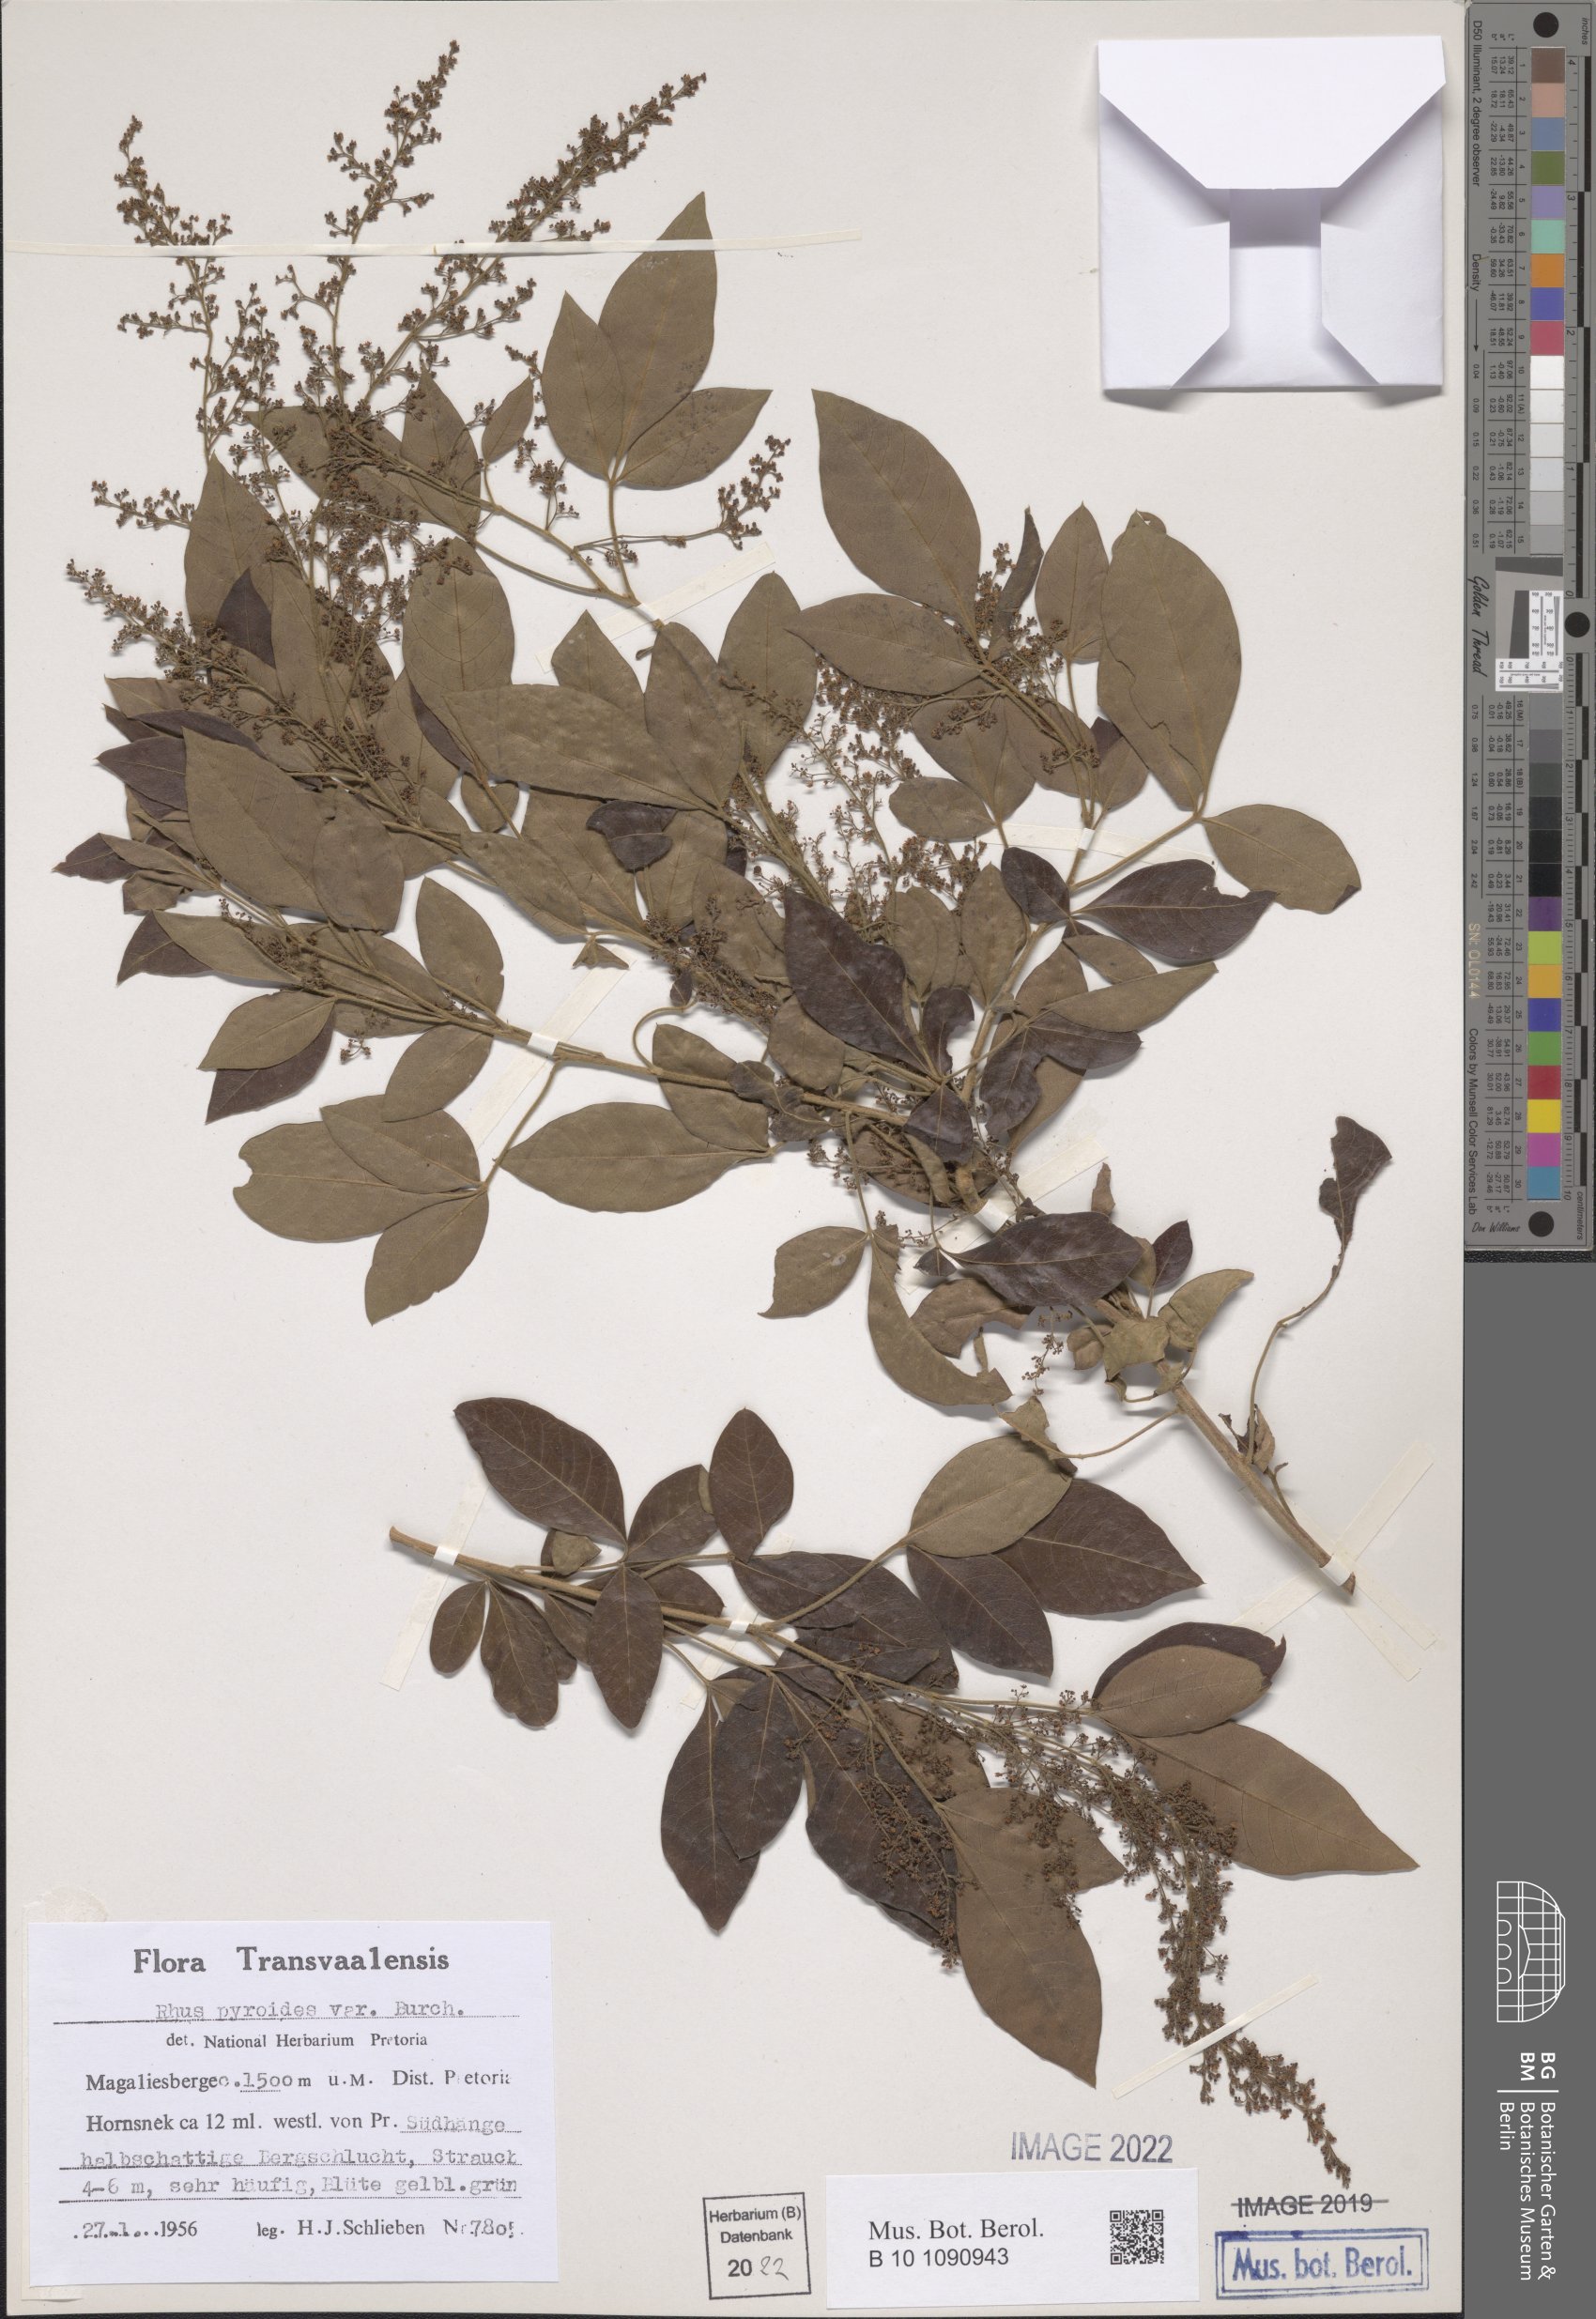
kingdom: Plantae
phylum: Tracheophyta
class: Magnoliopsida
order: Sapindales
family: Anacardiaceae
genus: Searsia
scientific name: Searsia pyroides
